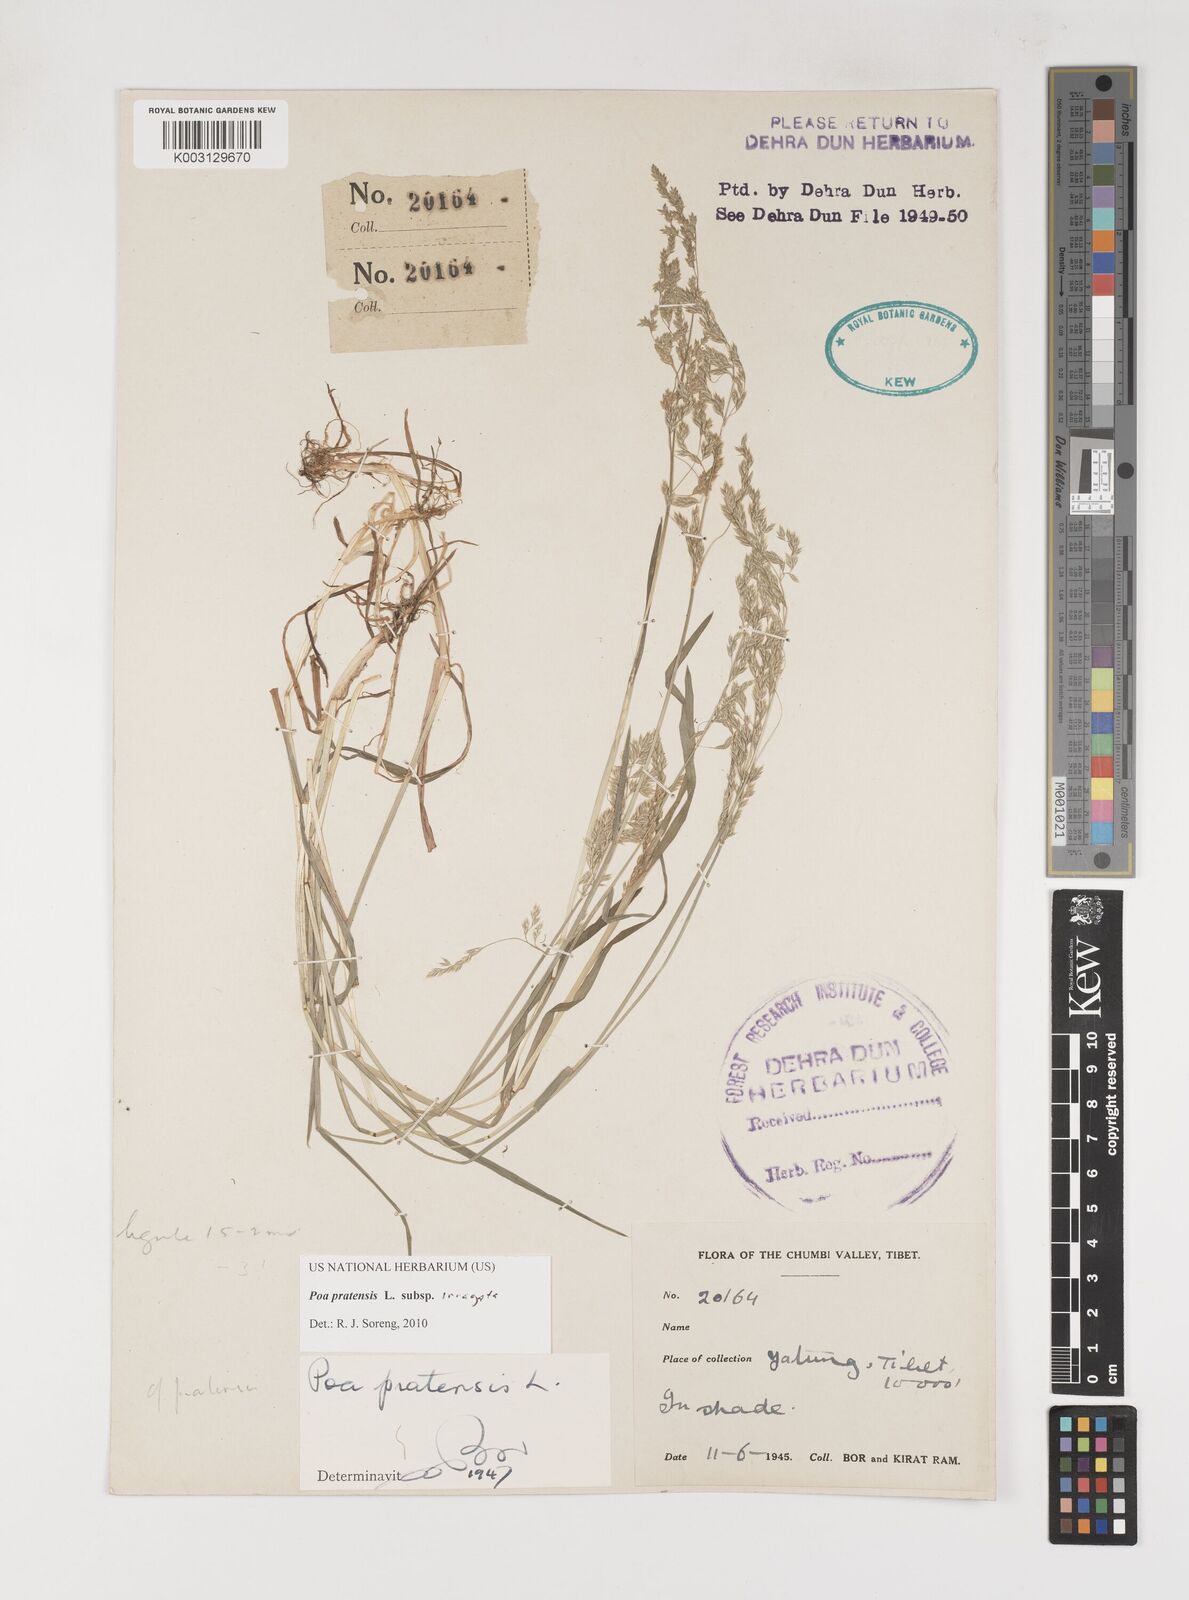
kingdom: Plantae
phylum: Tracheophyta
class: Liliopsida
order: Poales
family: Poaceae
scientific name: Poaceae
